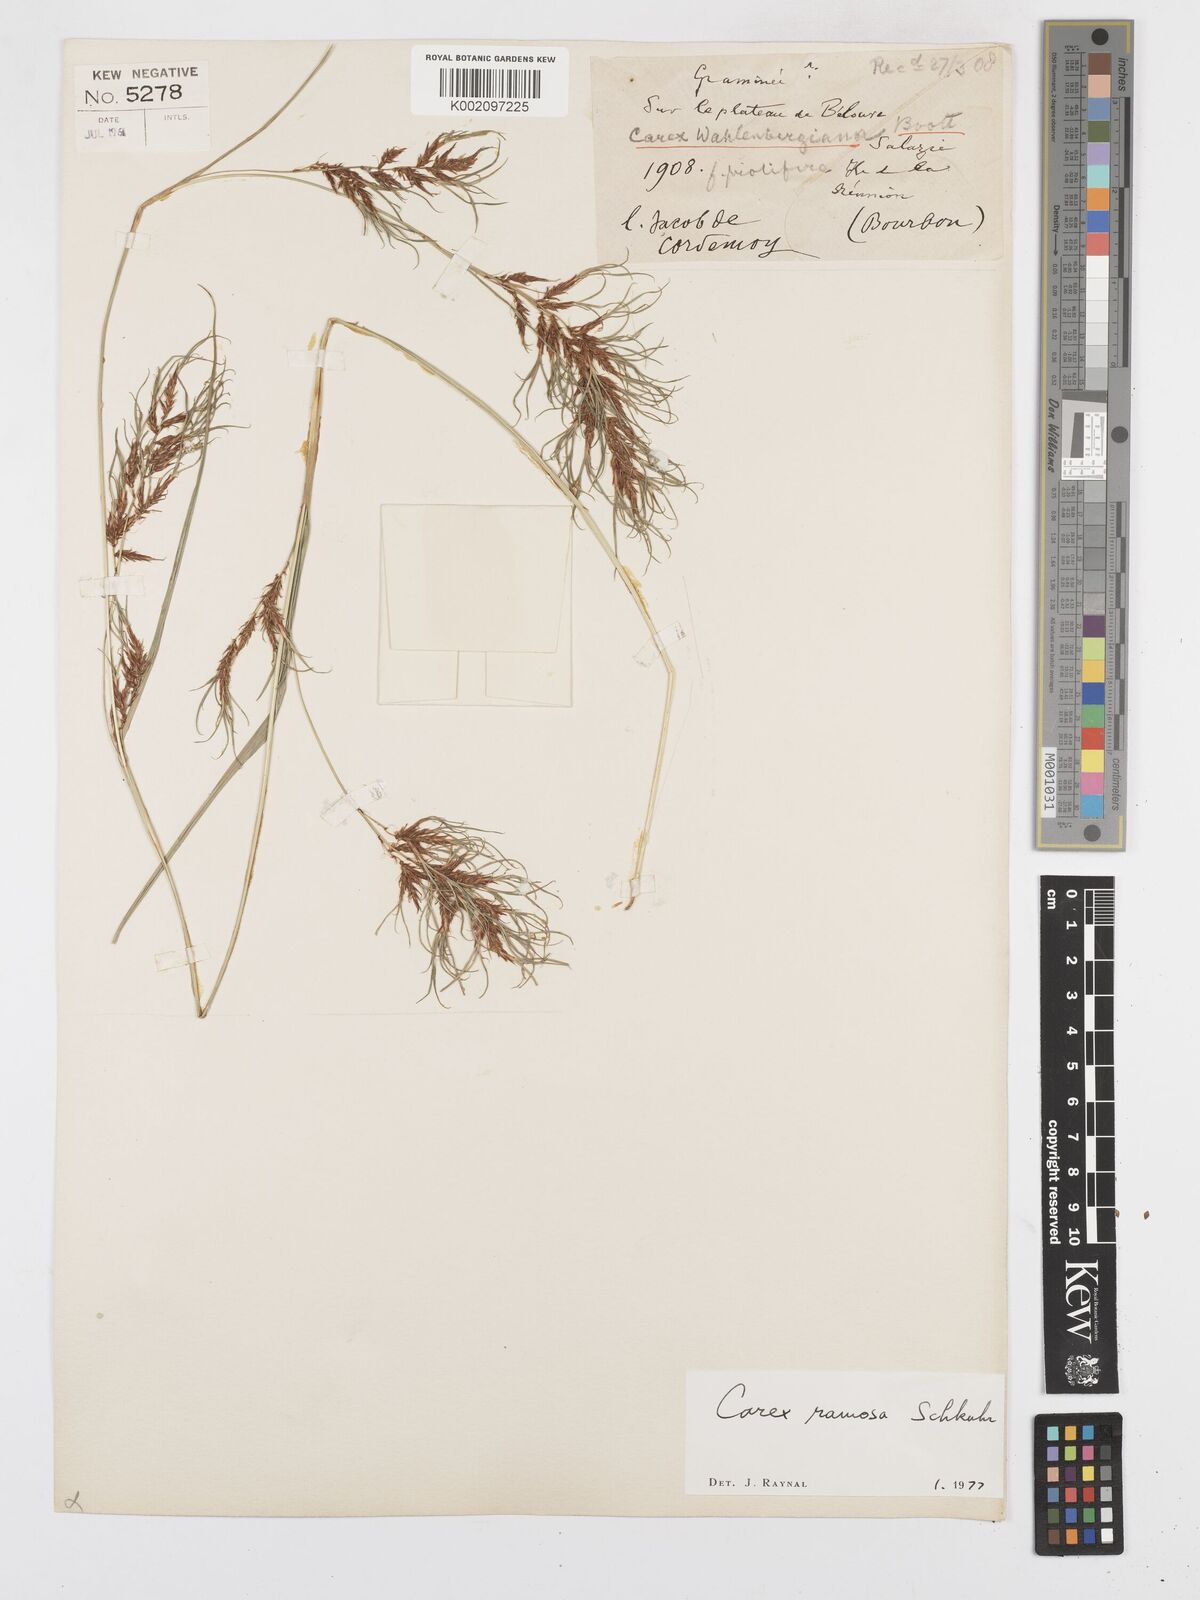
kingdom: Plantae
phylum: Tracheophyta
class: Liliopsida
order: Poales
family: Cyperaceae
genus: Carex
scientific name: Carex ramosa
